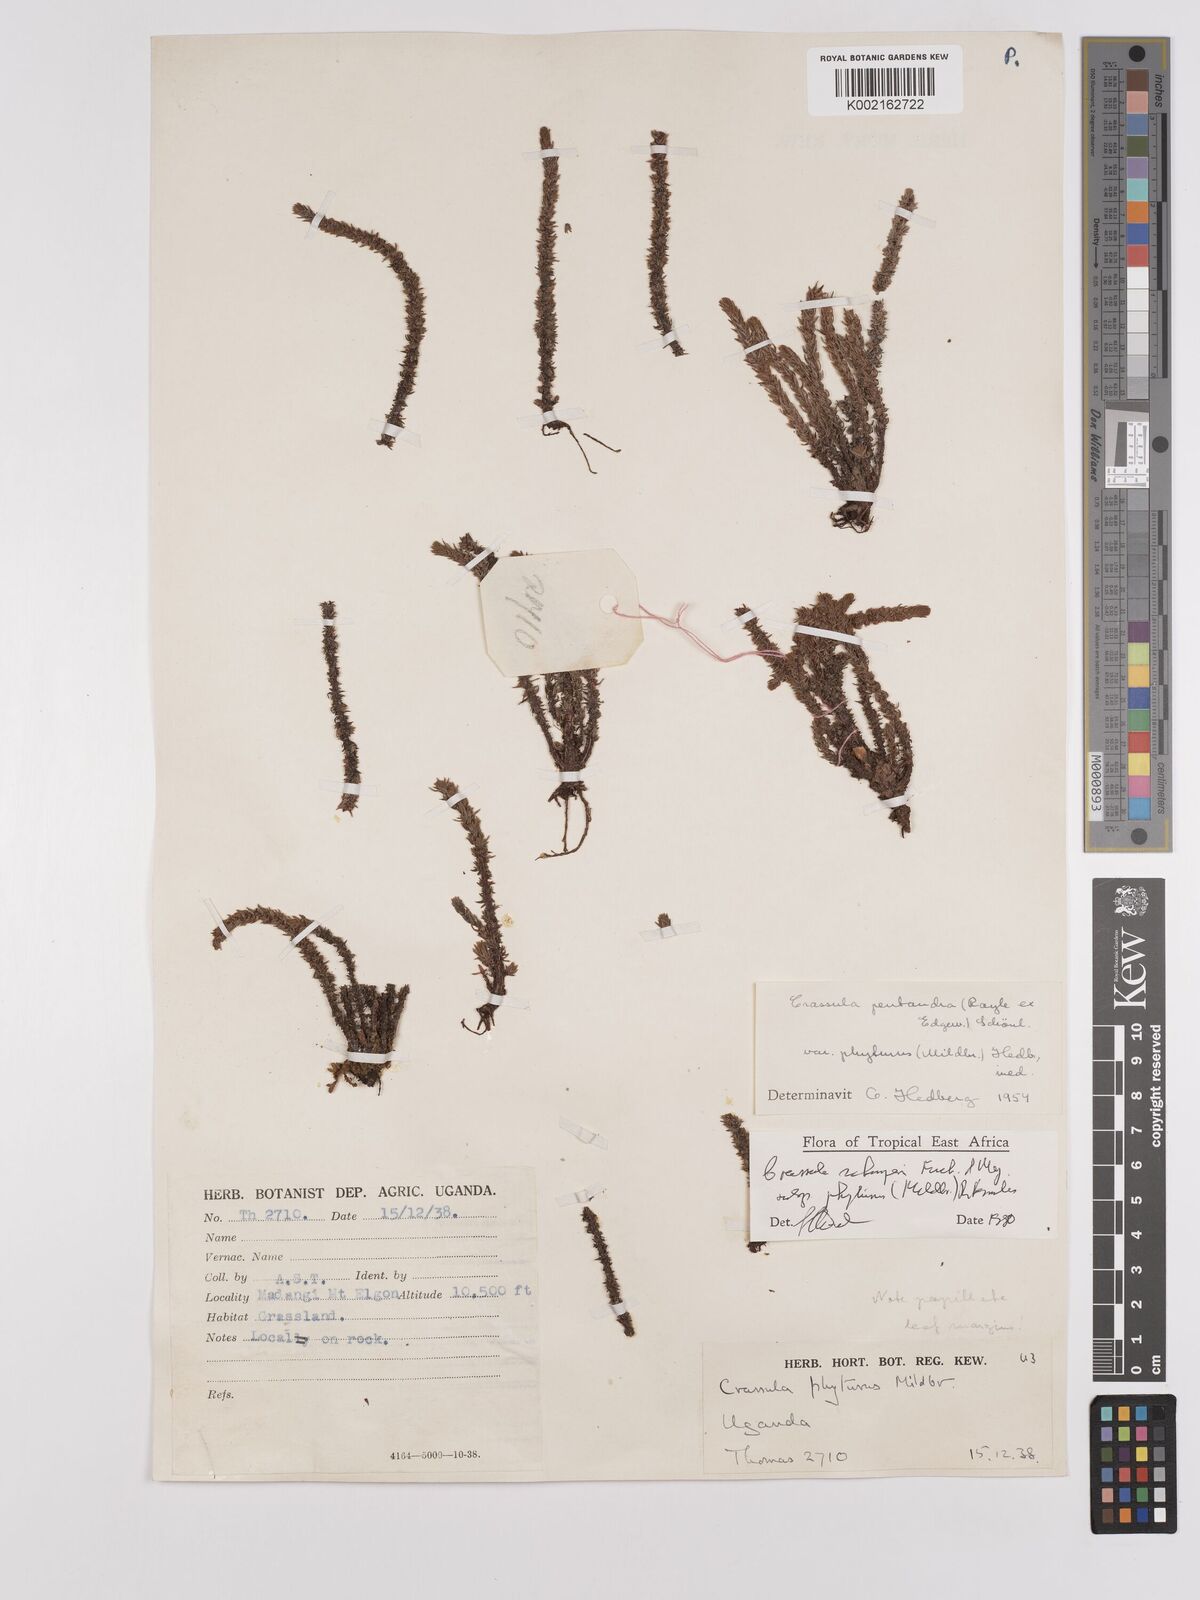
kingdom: Plantae
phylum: Tracheophyta
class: Magnoliopsida
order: Saxifragales
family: Crassulaceae
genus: Crassula
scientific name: Crassula schimperi
